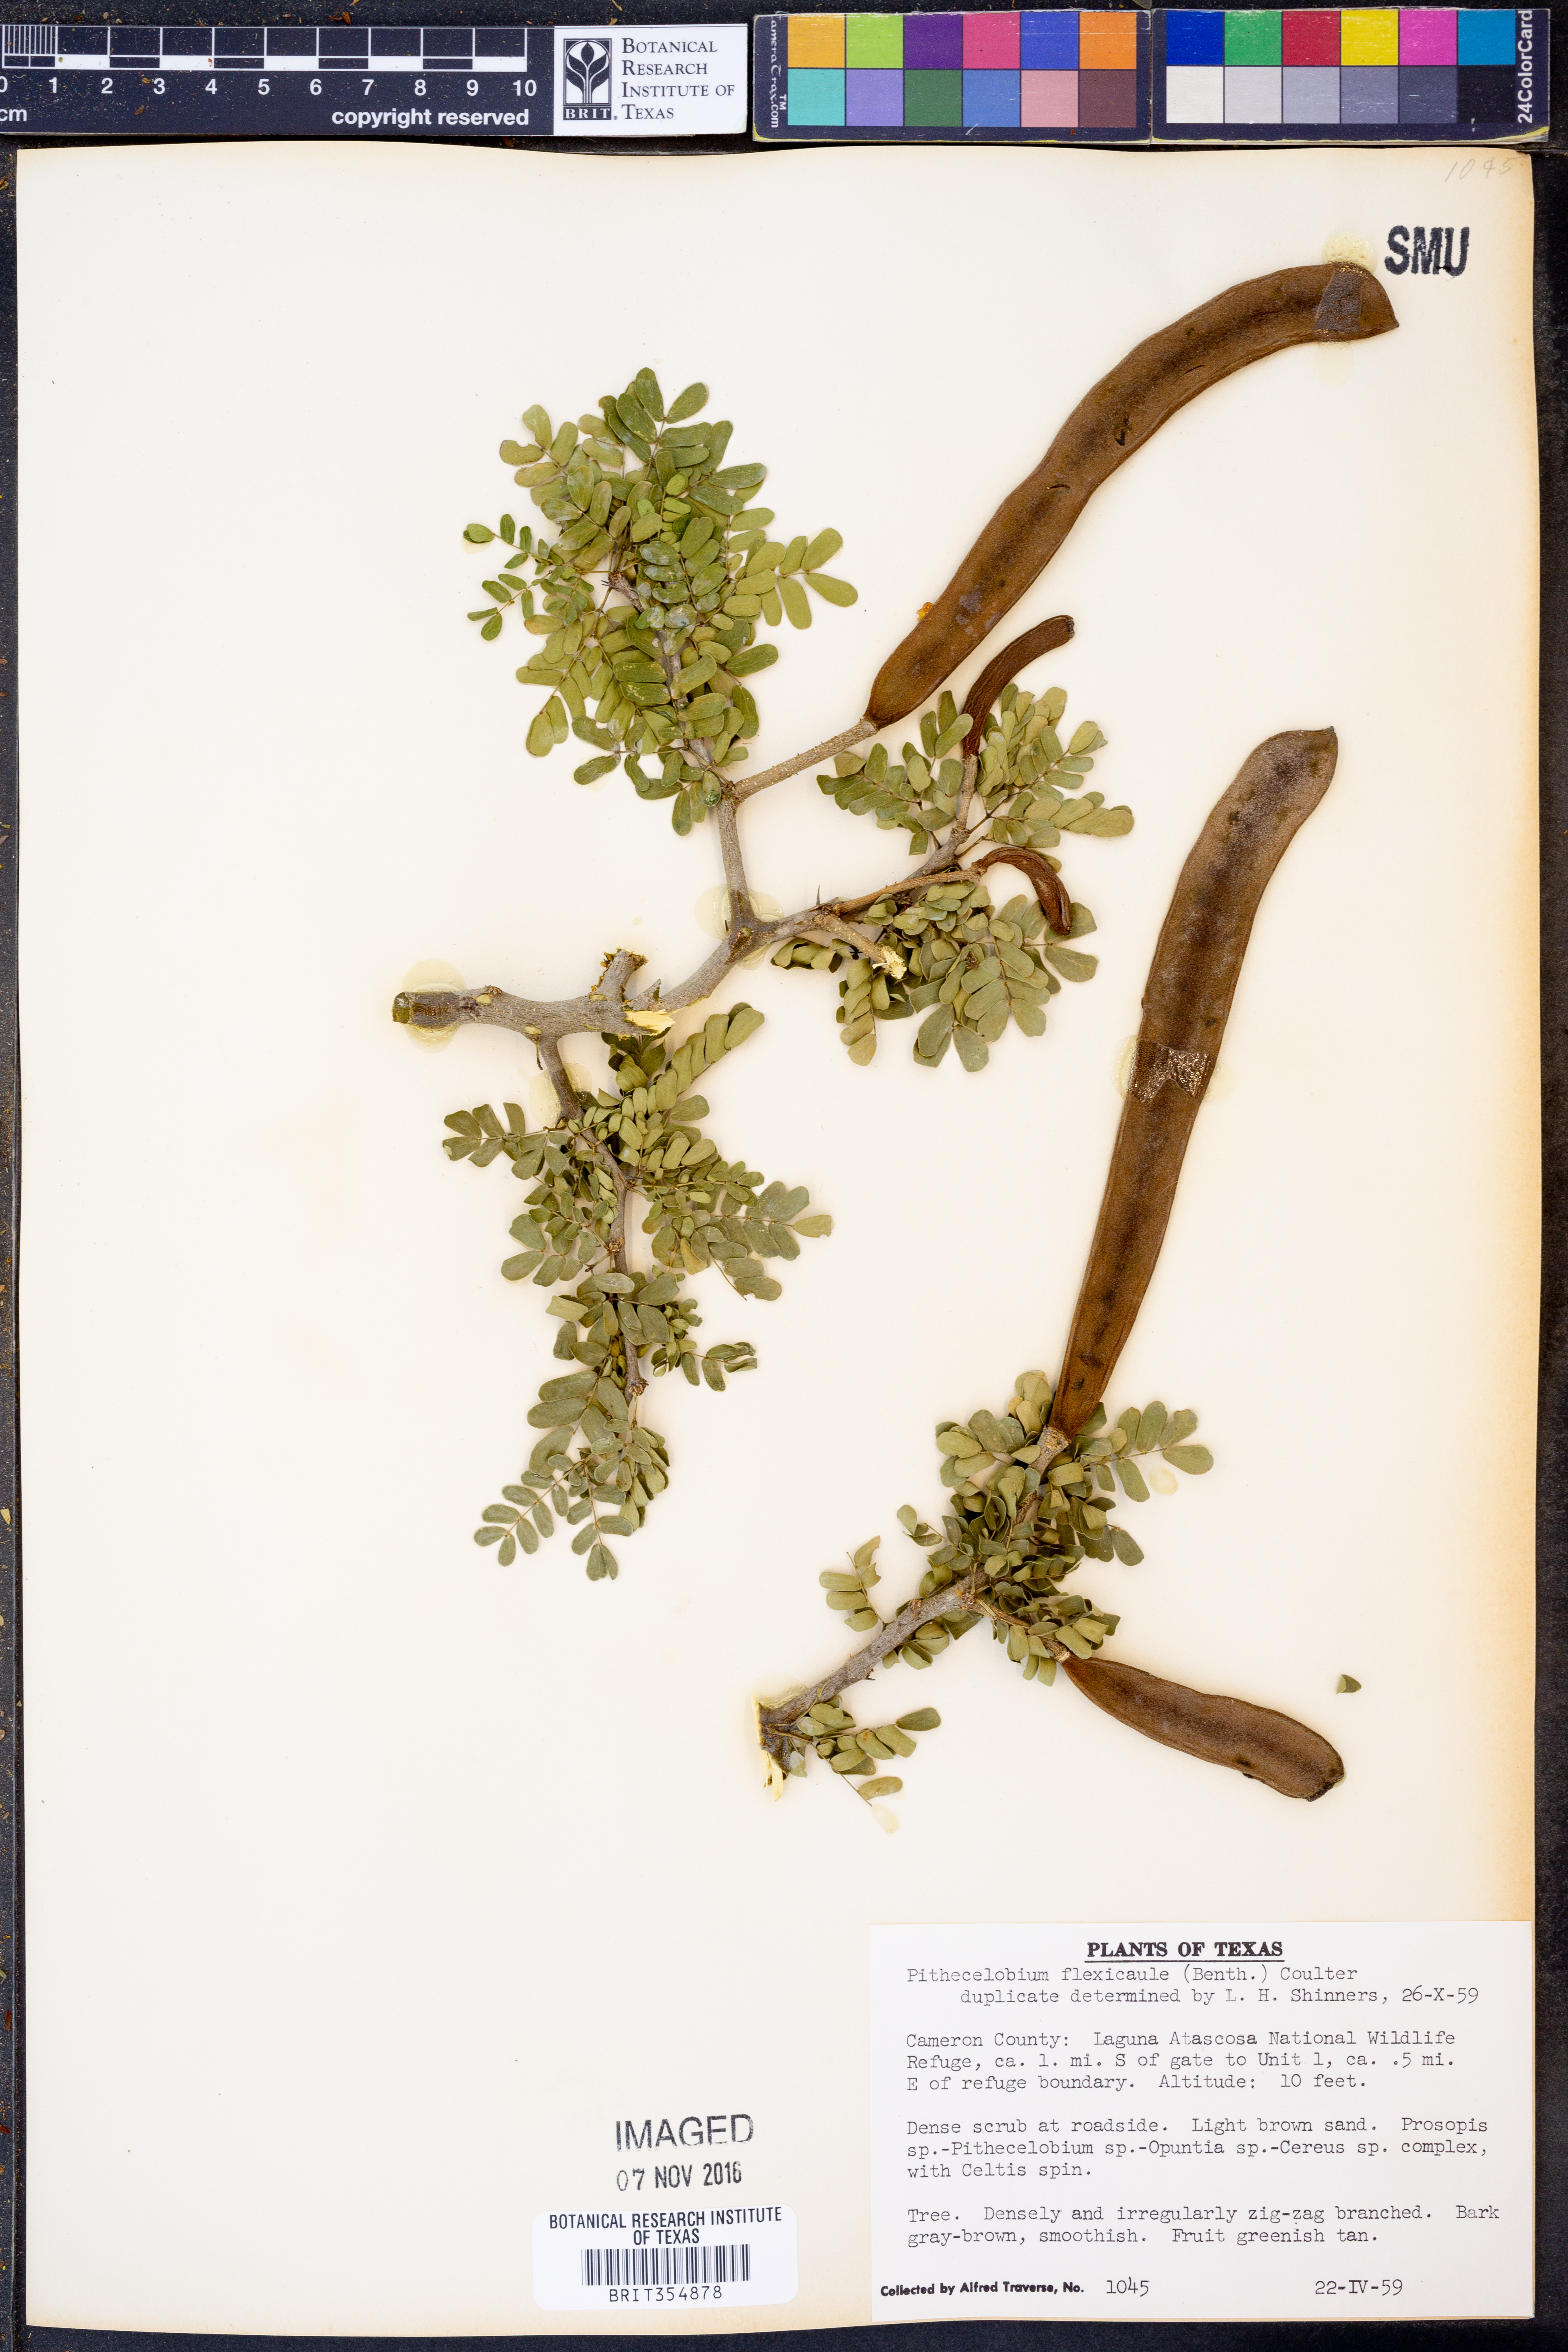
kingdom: Plantae
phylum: Tracheophyta
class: Magnoliopsida
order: Fabales
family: Fabaceae
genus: Ebenopsis
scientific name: Ebenopsis ebano
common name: Ebony blackbead
